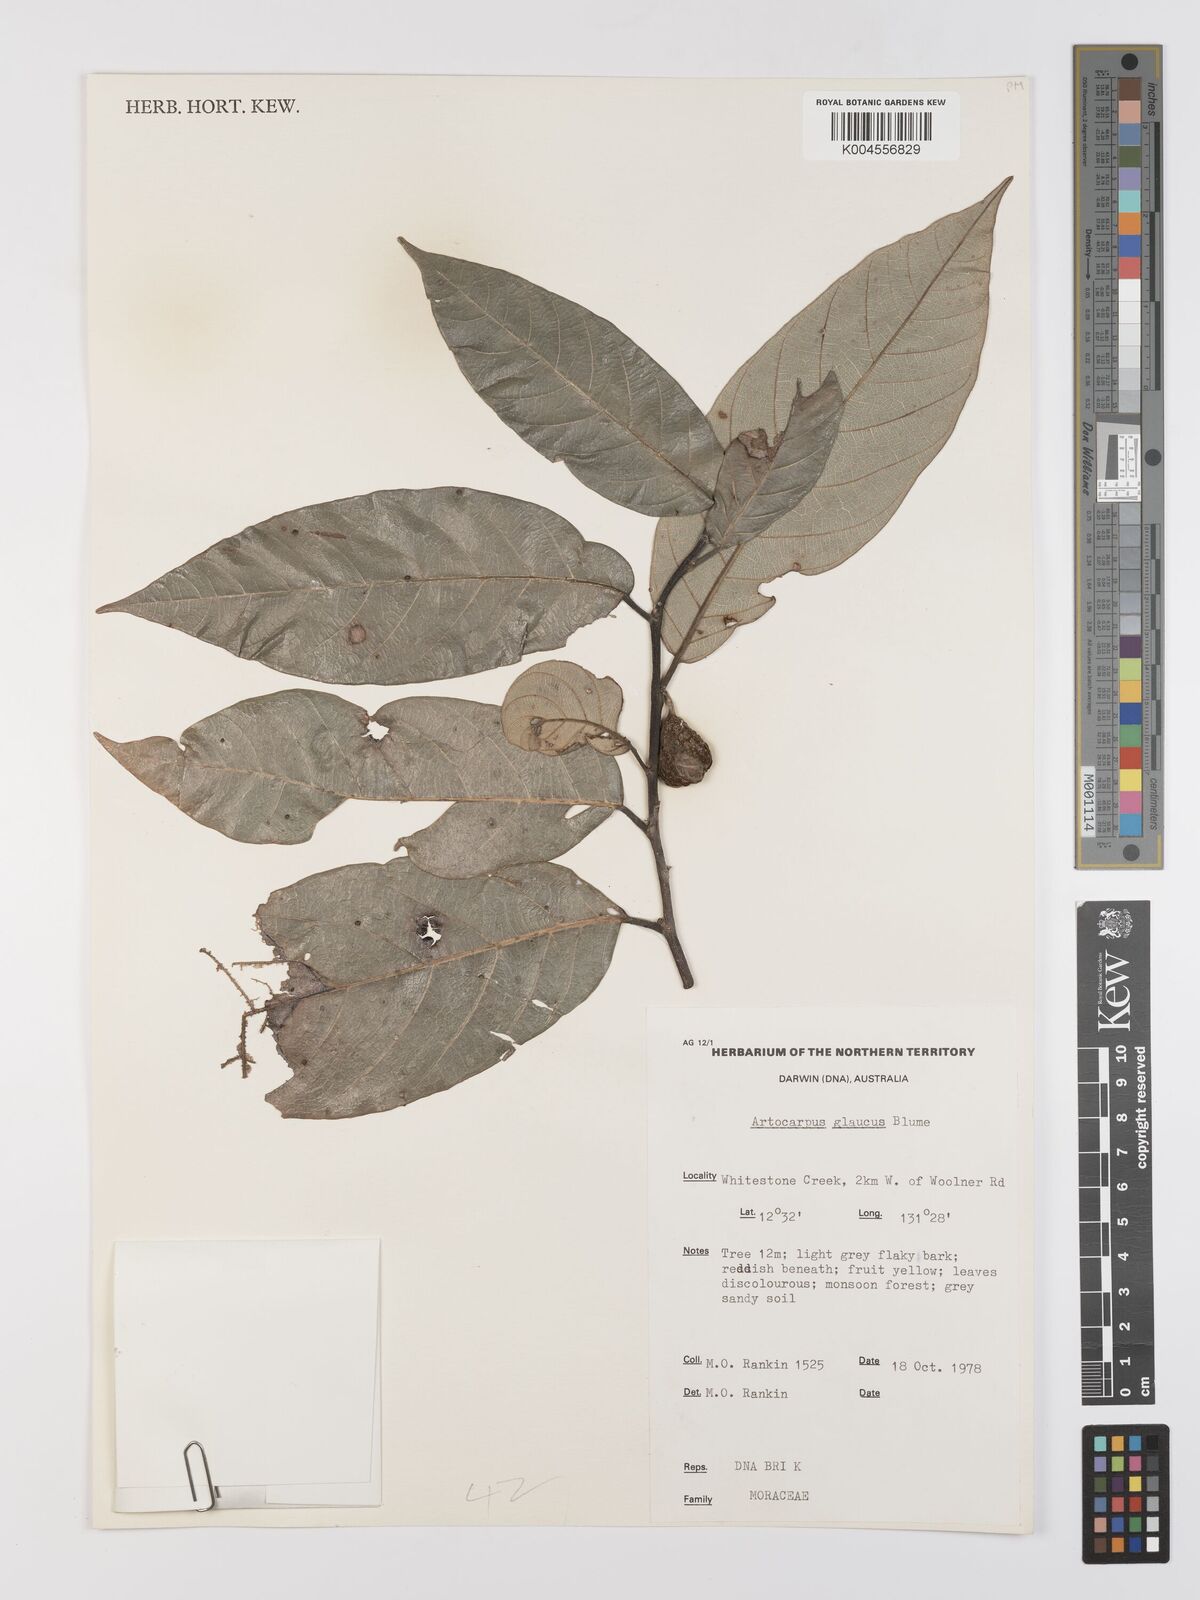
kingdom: Plantae
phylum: Tracheophyta
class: Magnoliopsida
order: Rosales
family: Moraceae
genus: Artocarpus
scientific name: Artocarpus glaucus
